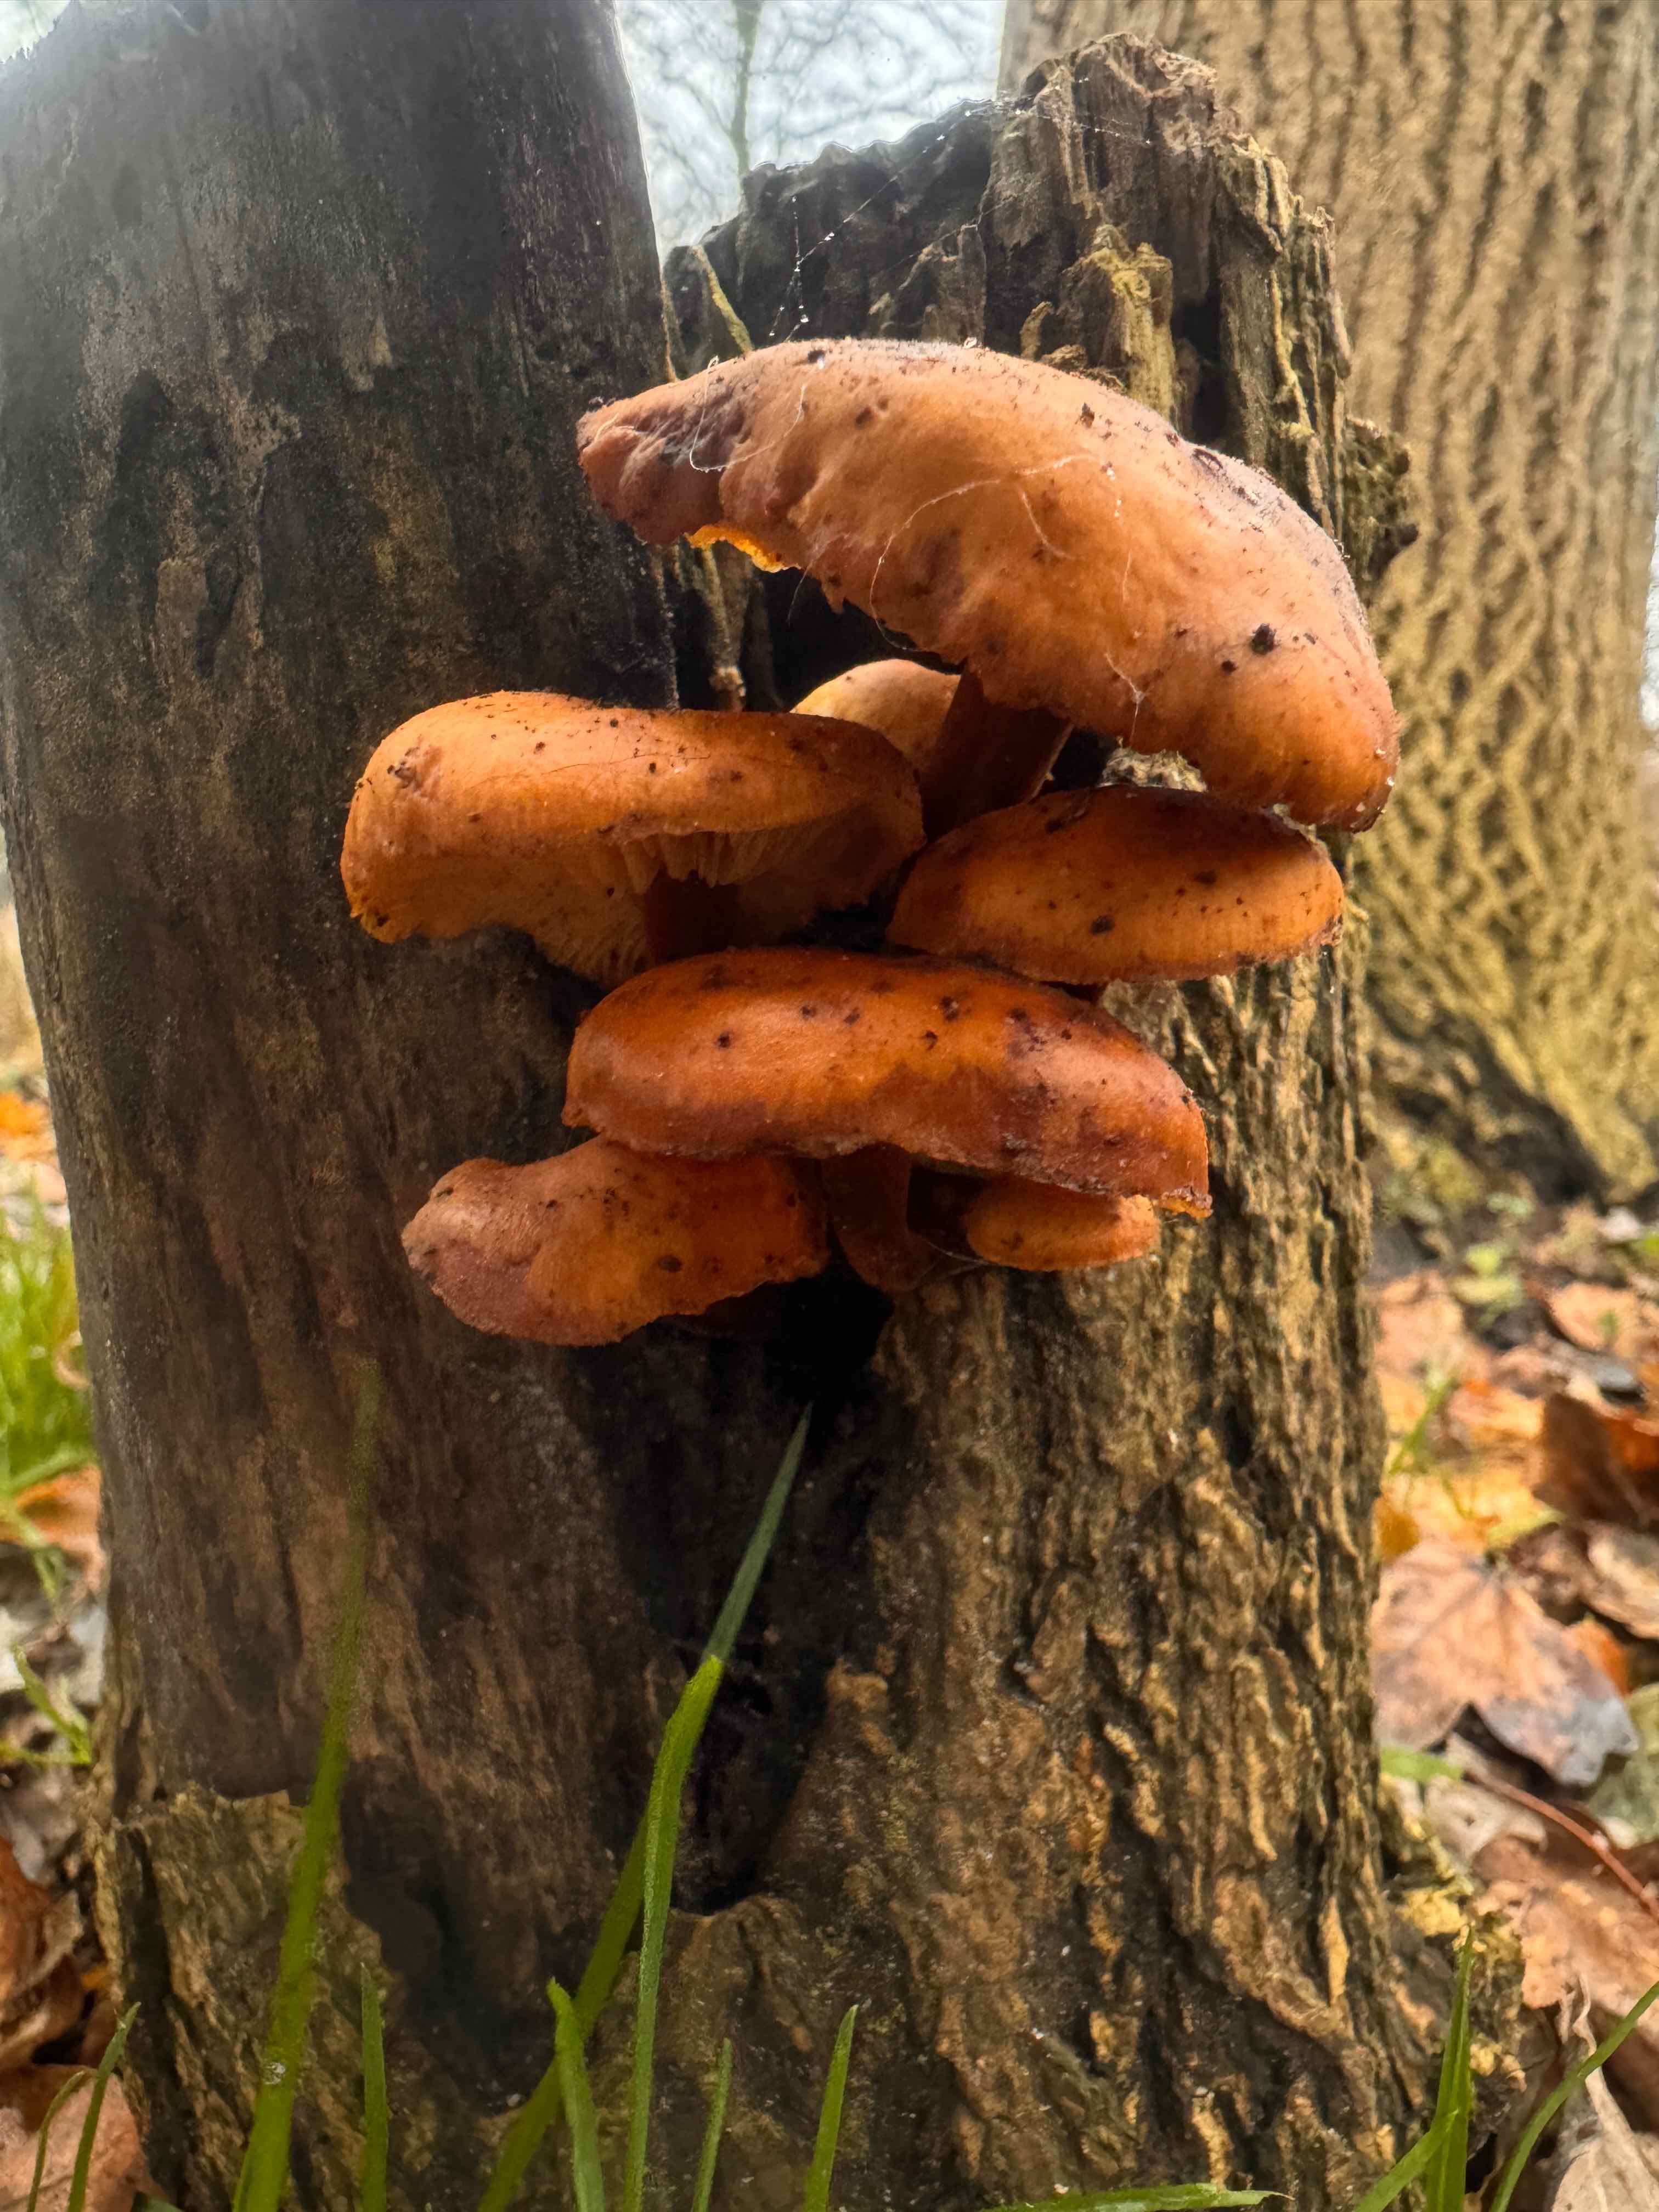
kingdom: Fungi
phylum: Basidiomycota
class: Agaricomycetes
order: Agaricales
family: Physalacriaceae
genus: Flammulina
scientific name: Flammulina velutipes
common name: gul fløjlsfod
